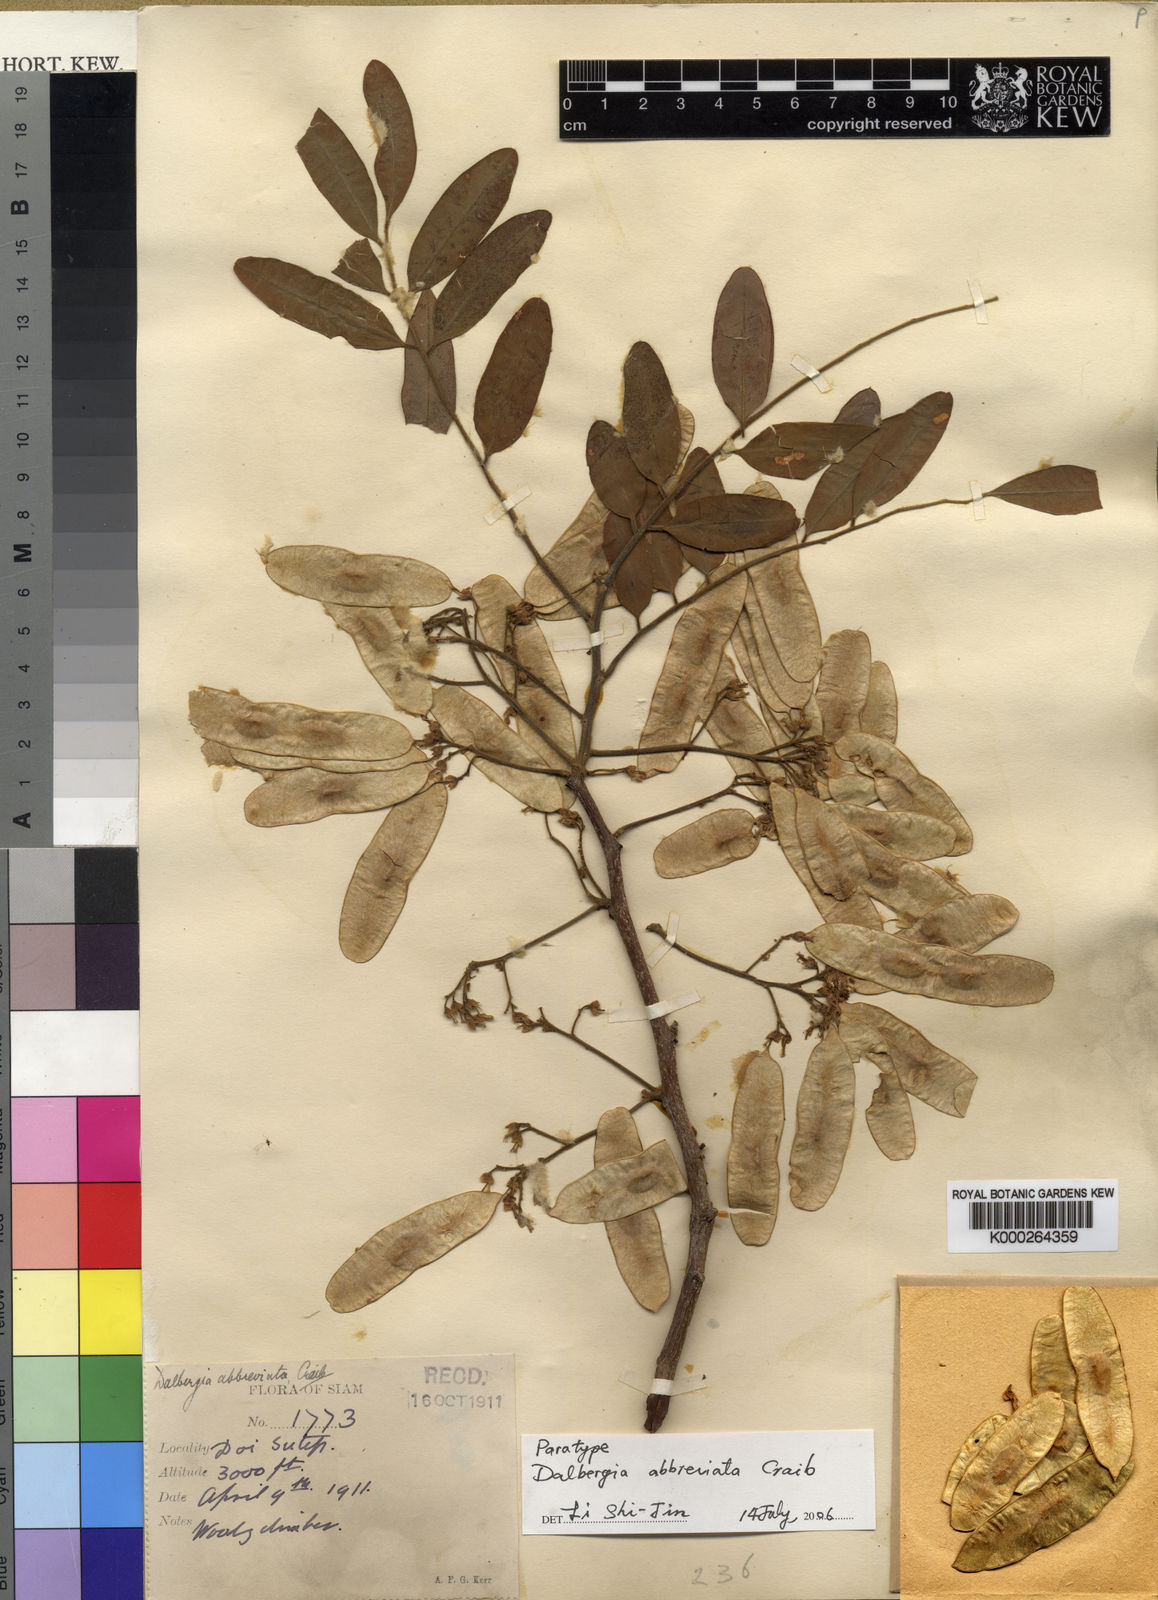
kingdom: Plantae
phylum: Tracheophyta
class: Magnoliopsida
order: Fabales
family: Fabaceae
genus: Dalbergia
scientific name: Dalbergia velutina
